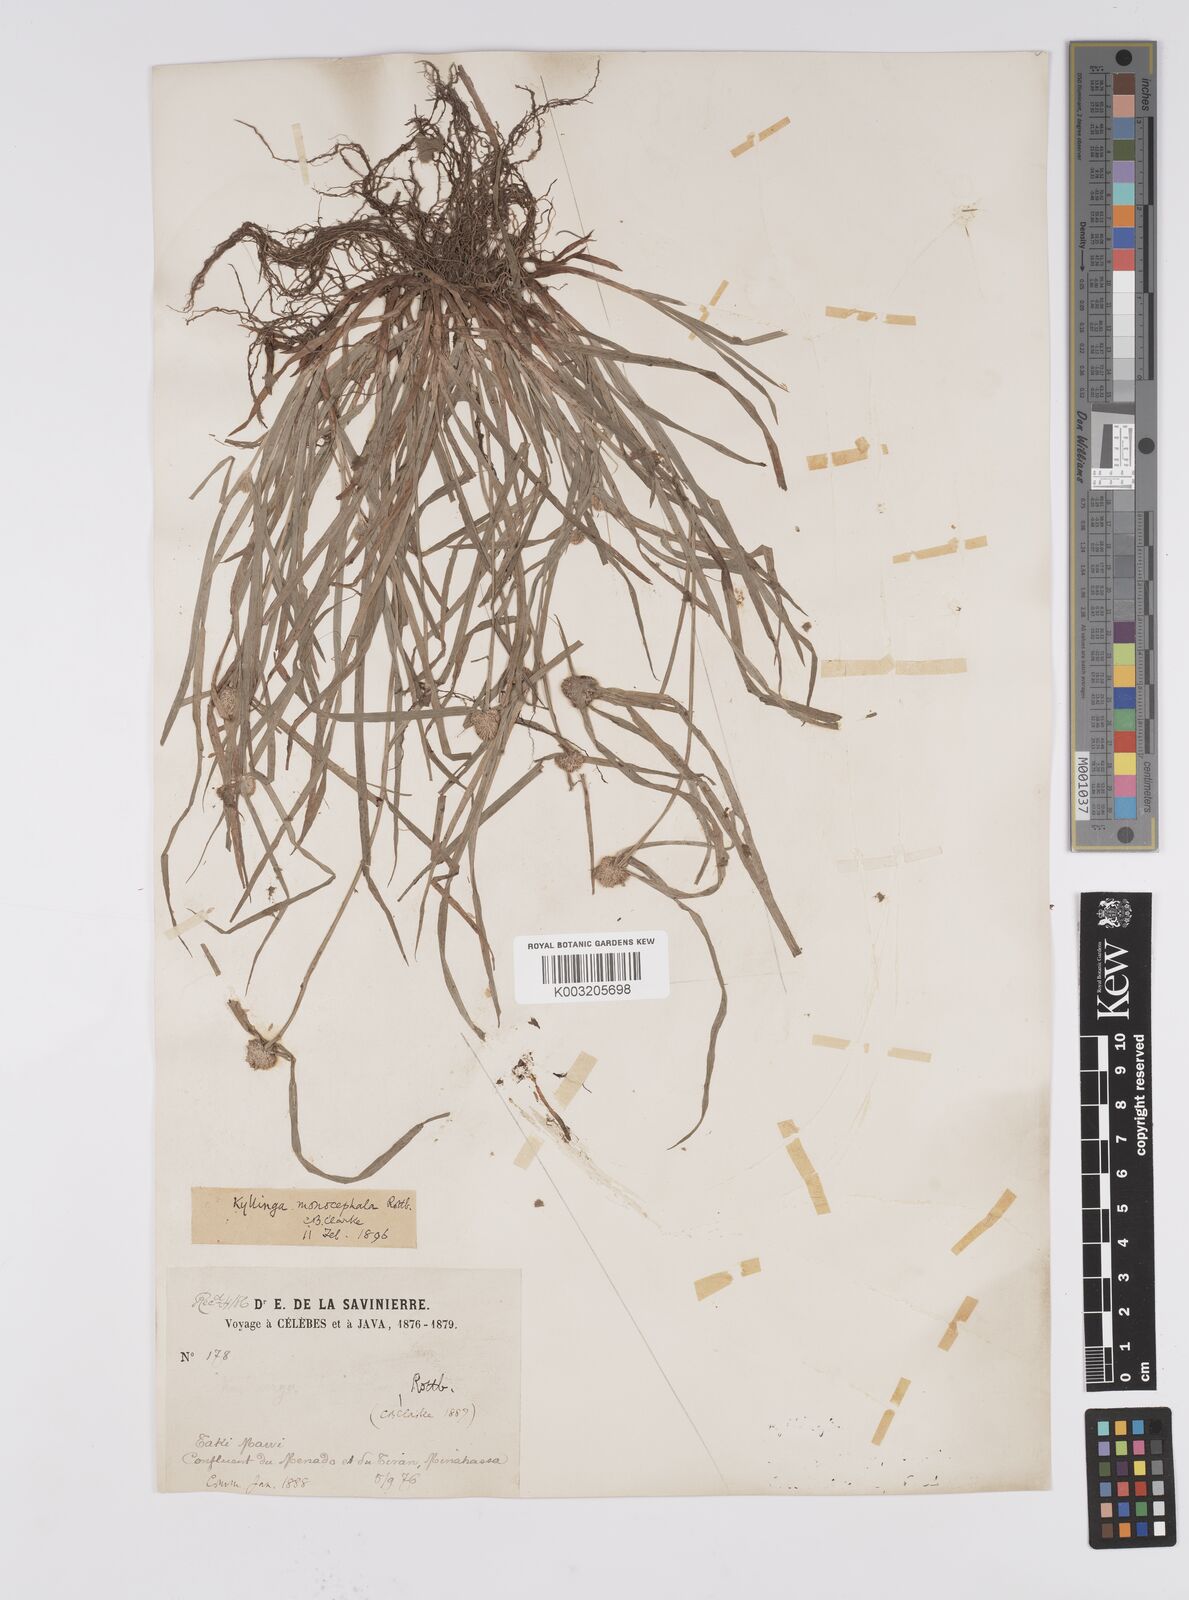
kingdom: Plantae
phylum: Tracheophyta
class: Liliopsida
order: Poales
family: Cyperaceae
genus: Cyperus
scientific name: Cyperus nemoralis
